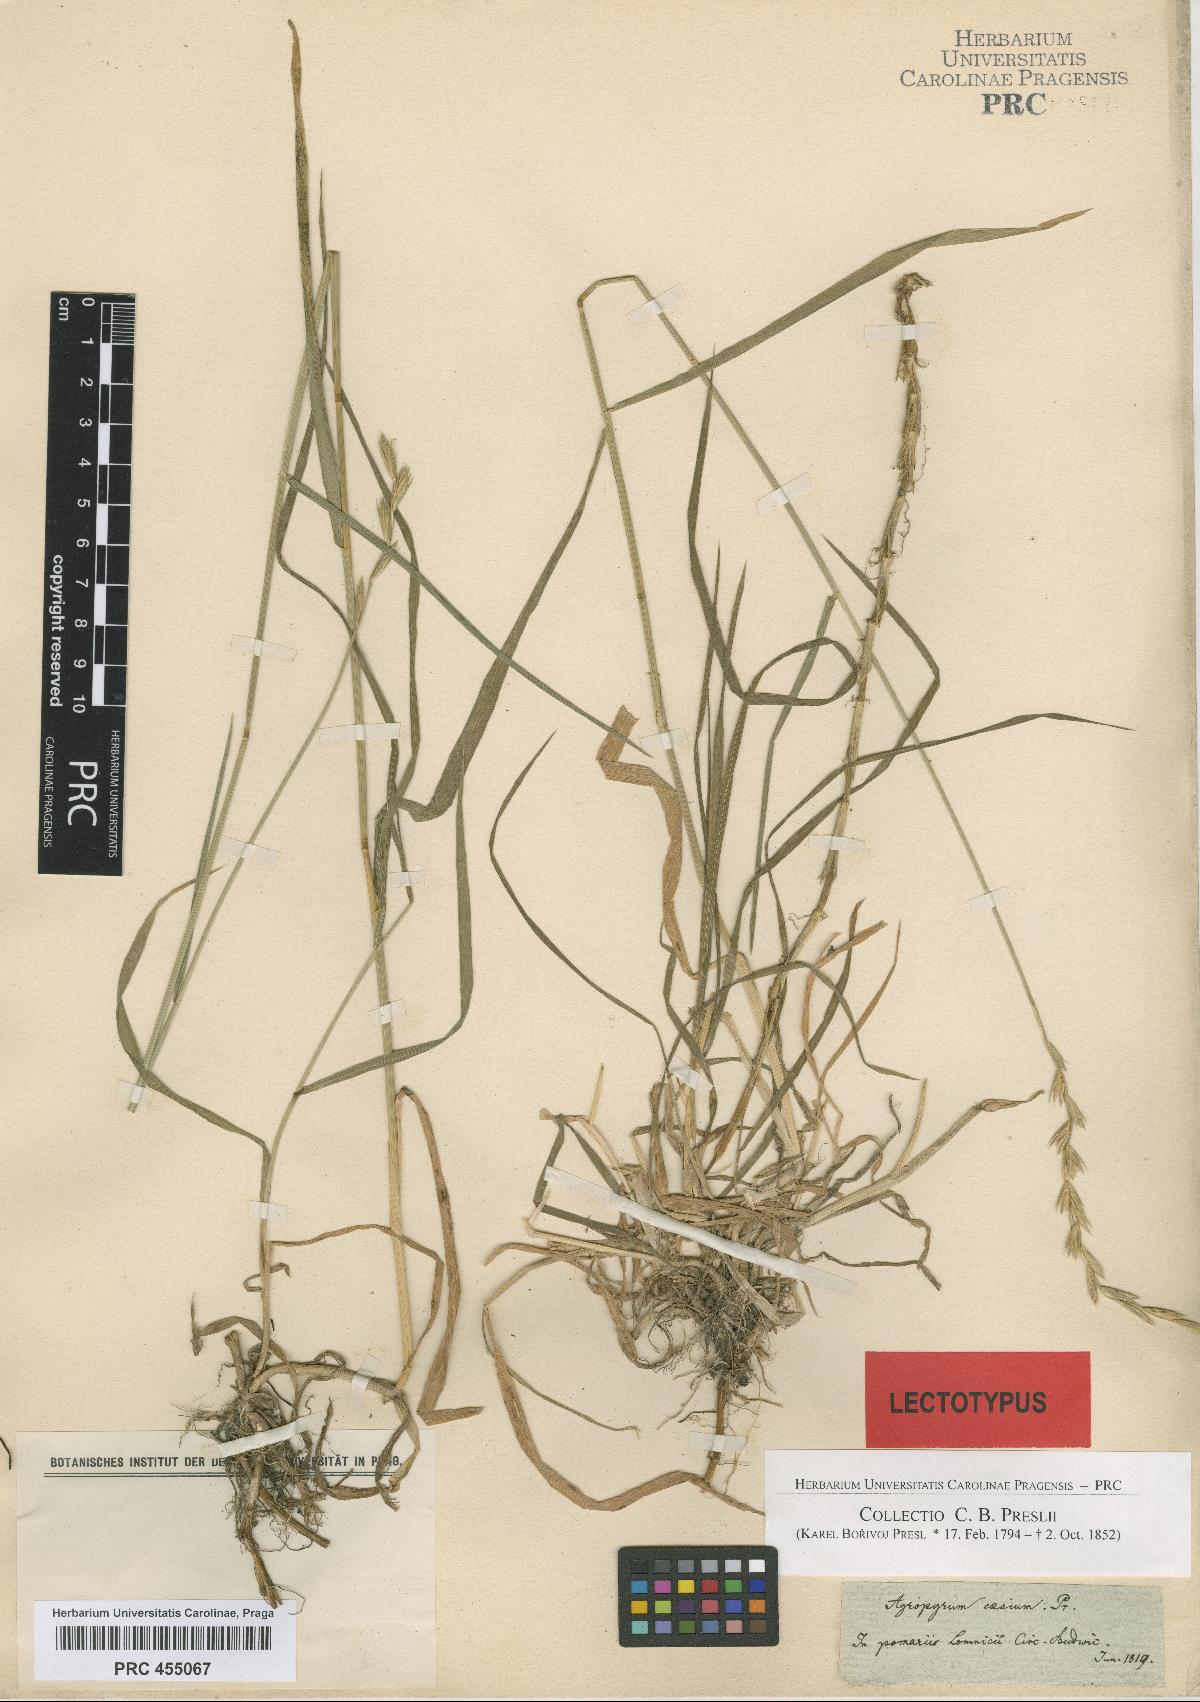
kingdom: Plantae
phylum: Tracheophyta
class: Liliopsida
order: Poales
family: Poaceae
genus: Elymus
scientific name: Elymus repens
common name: Quackgrass
